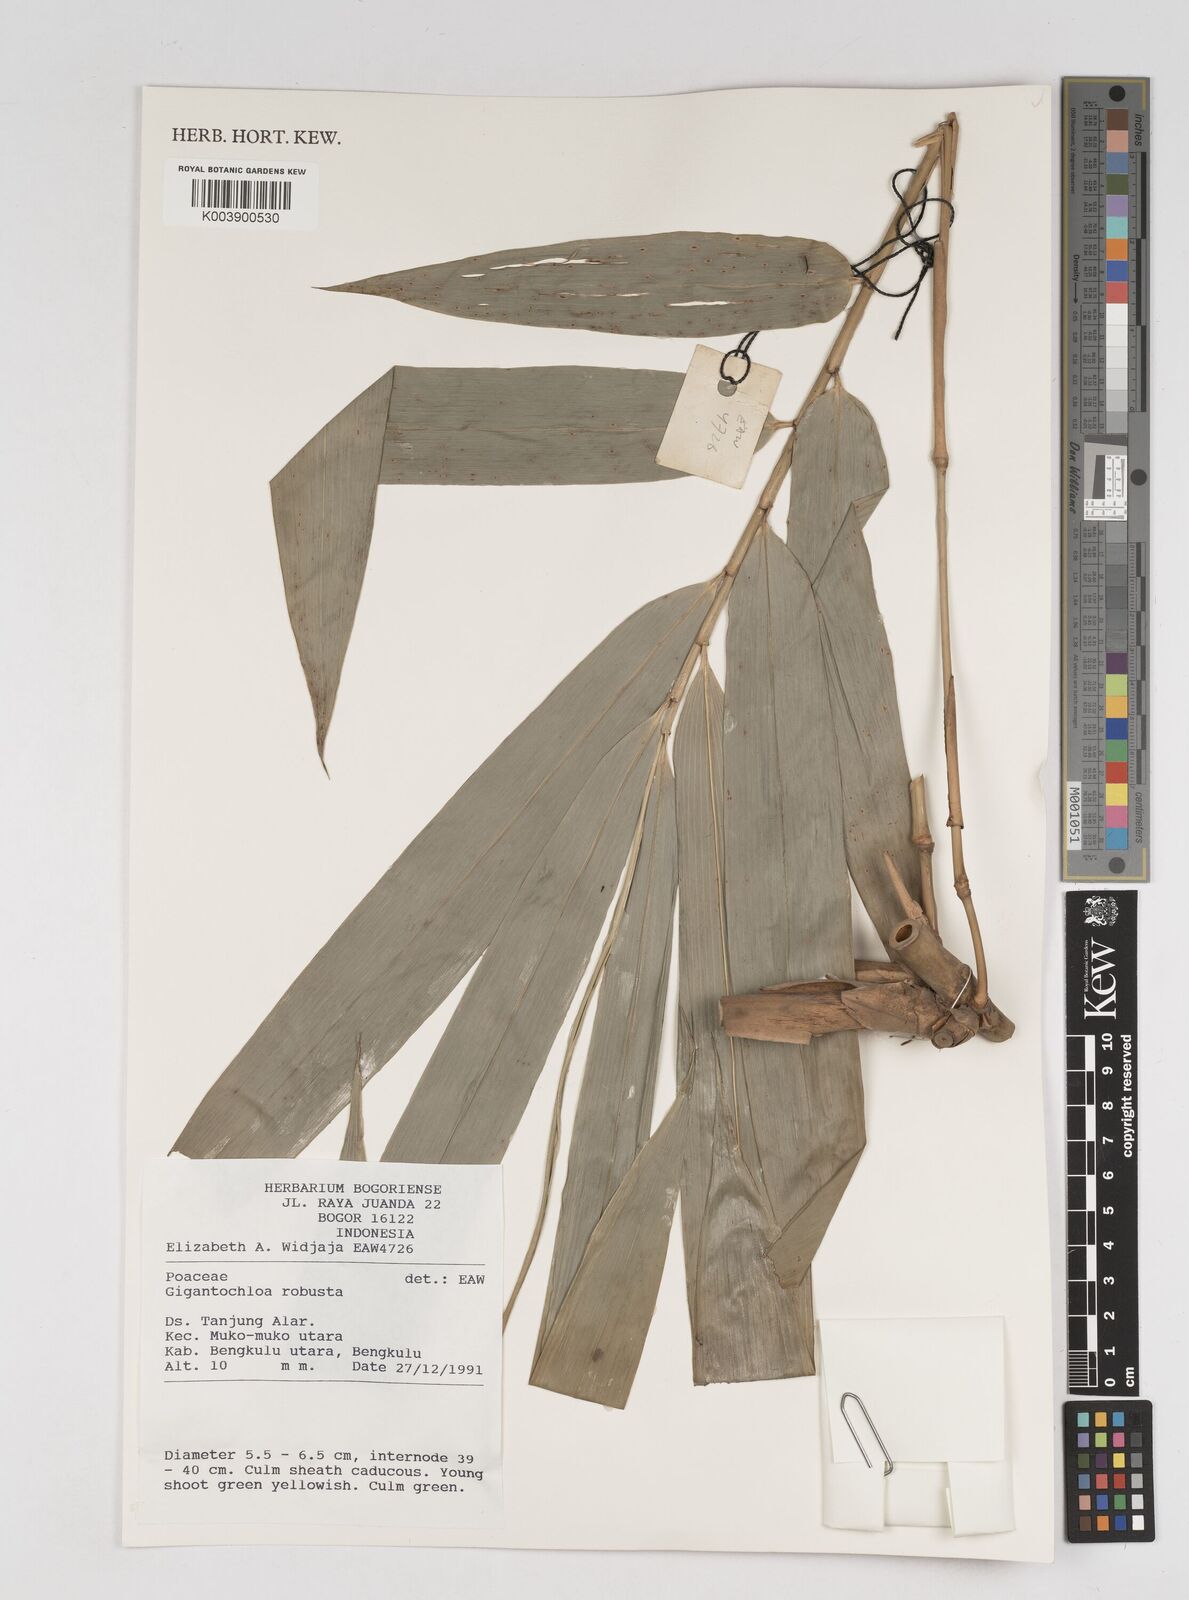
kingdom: Plantae
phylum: Tracheophyta
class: Liliopsida
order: Poales
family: Poaceae
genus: Gigantochloa
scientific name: Gigantochloa robusta
